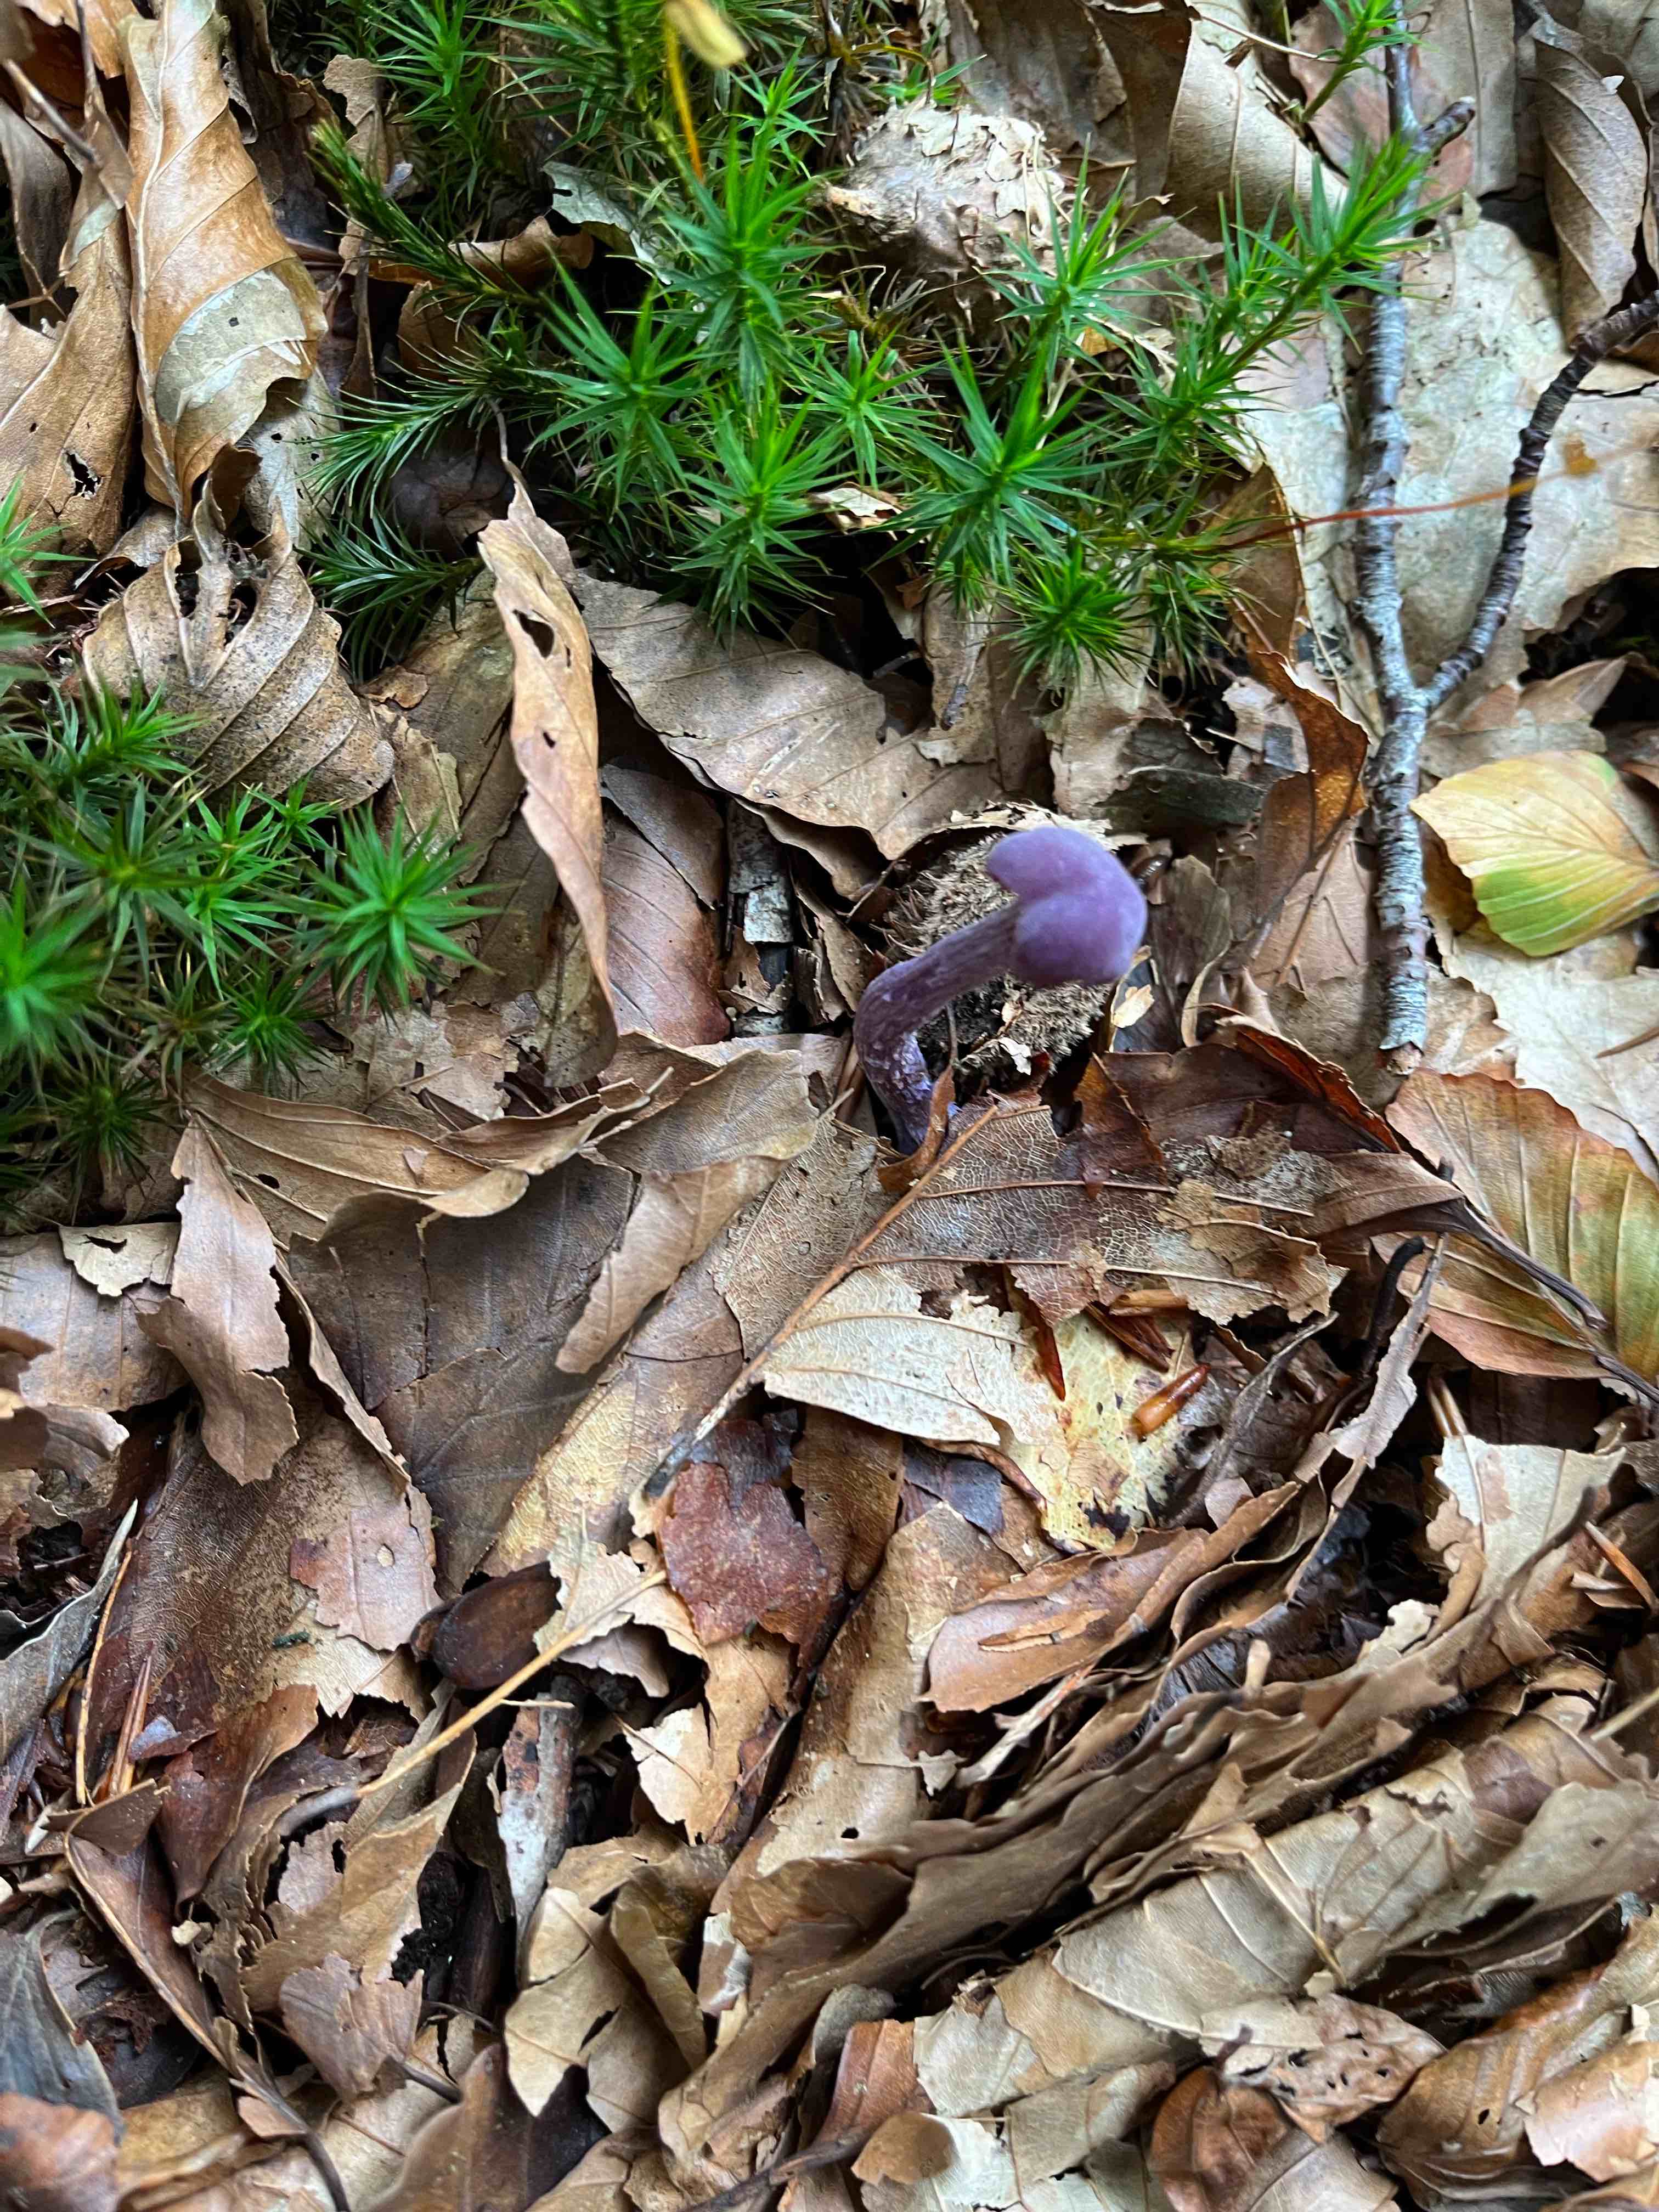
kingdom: Fungi
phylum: Basidiomycota
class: Agaricomycetes
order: Agaricales
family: Hydnangiaceae
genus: Laccaria
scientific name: Laccaria amethystina
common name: violet ametysthat
